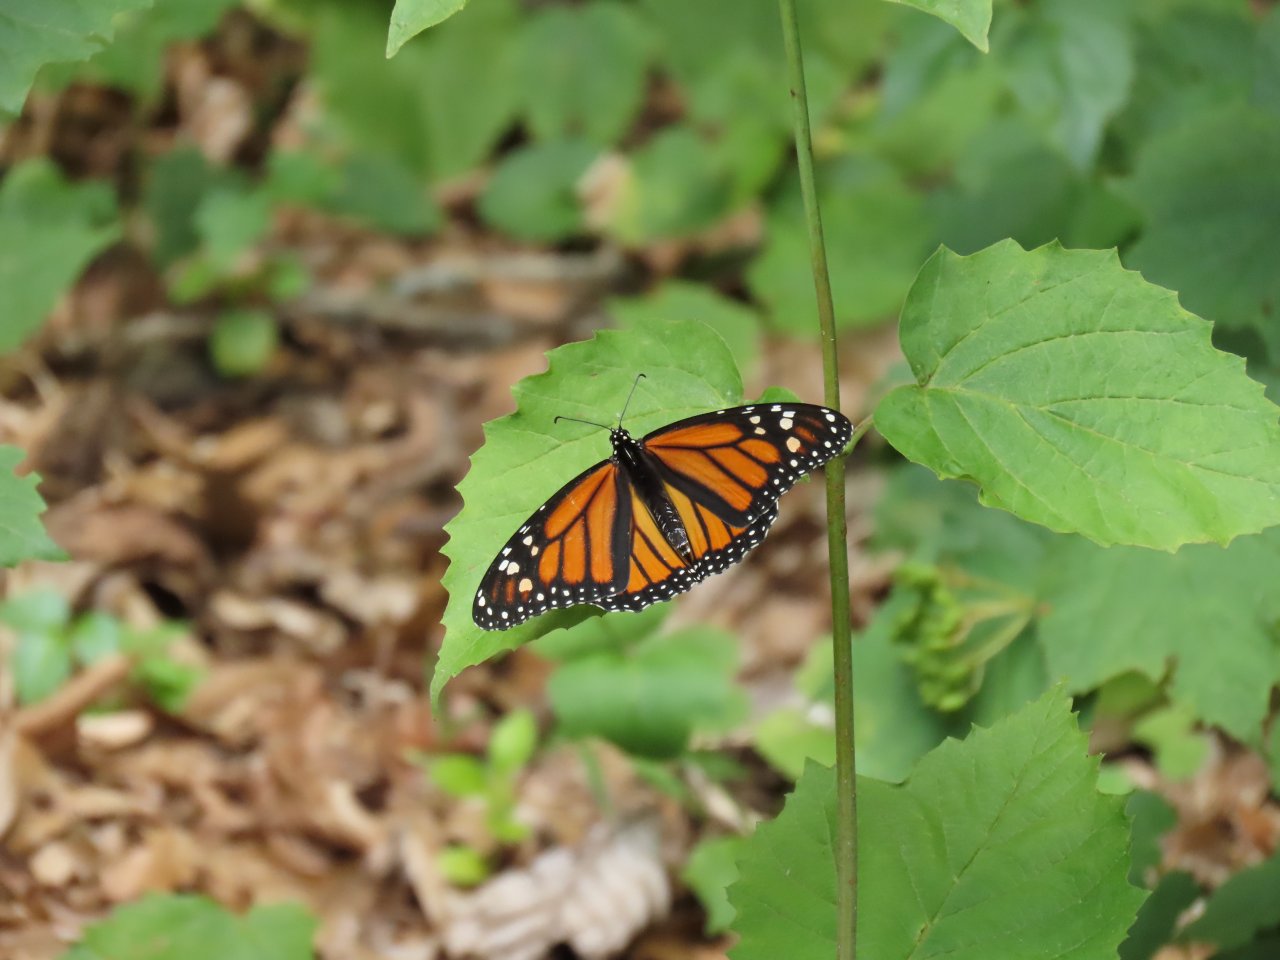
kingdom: Animalia
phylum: Arthropoda
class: Insecta
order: Lepidoptera
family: Nymphalidae
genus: Danaus
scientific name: Danaus plexippus
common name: Monarch
